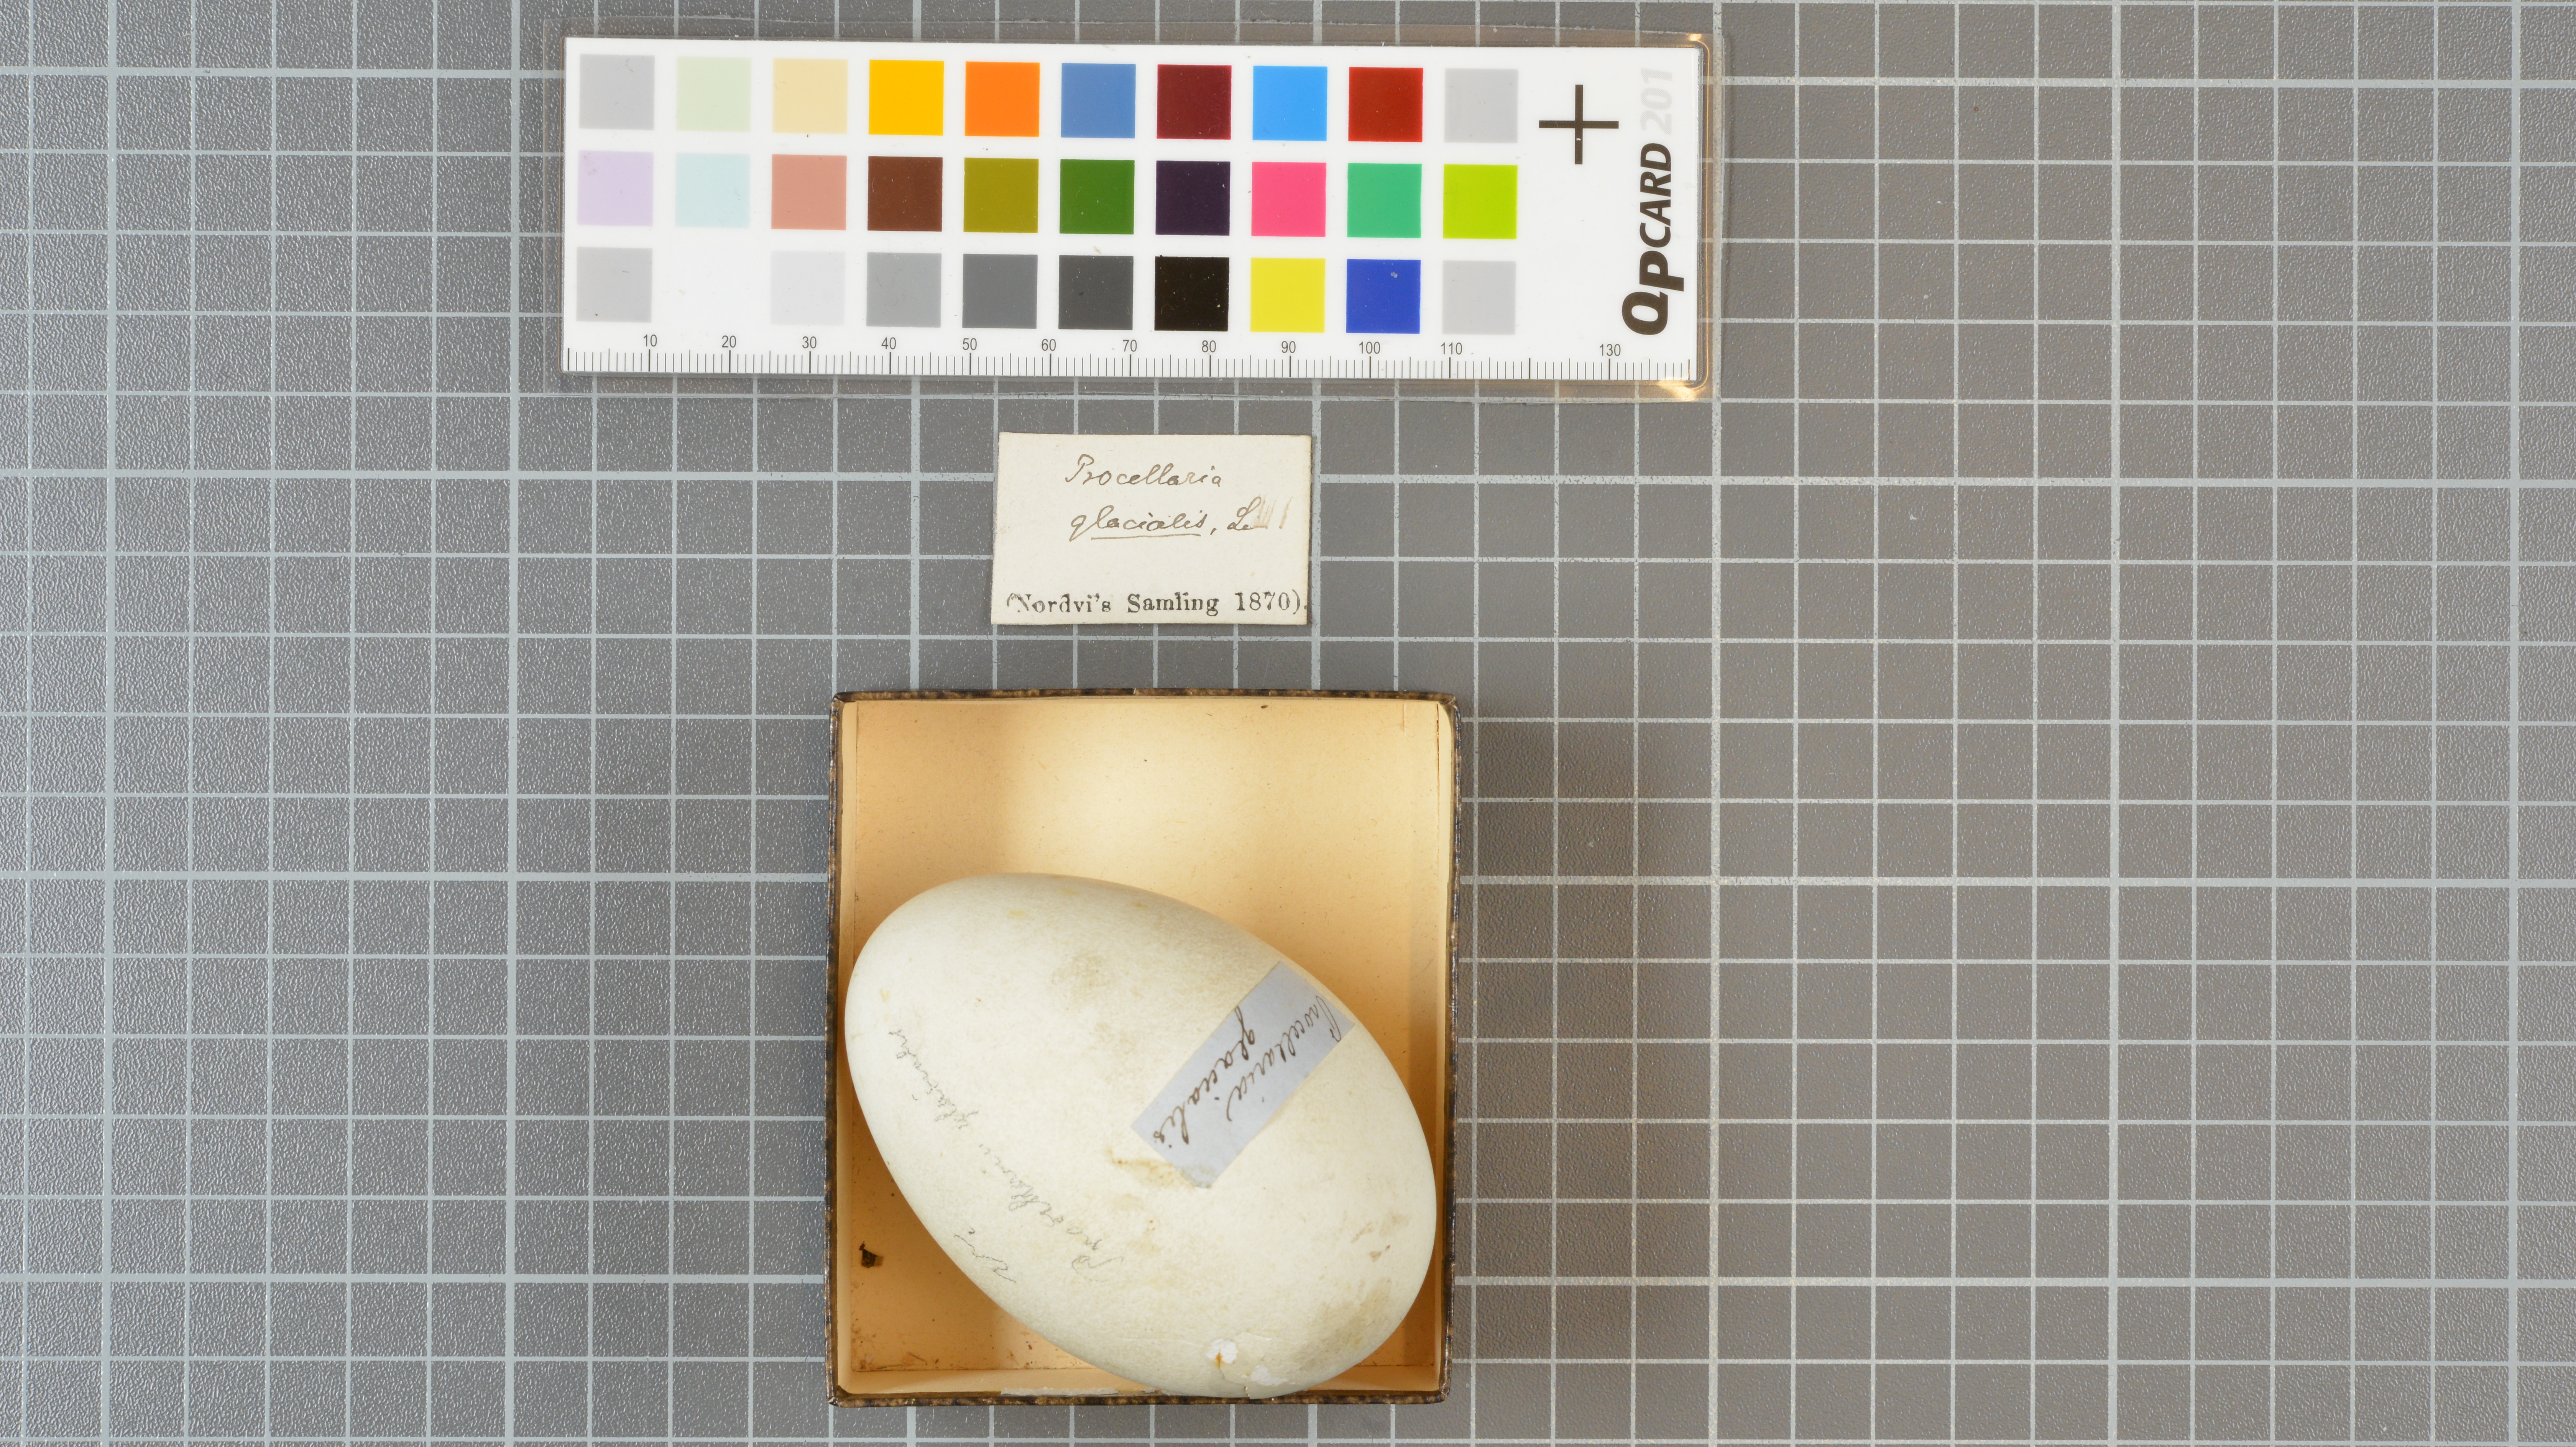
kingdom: Animalia
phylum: Chordata
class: Aves
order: Procellariiformes
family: Procellariidae
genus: Fulmarus
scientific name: Fulmarus glacialis
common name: Northern fulmar
